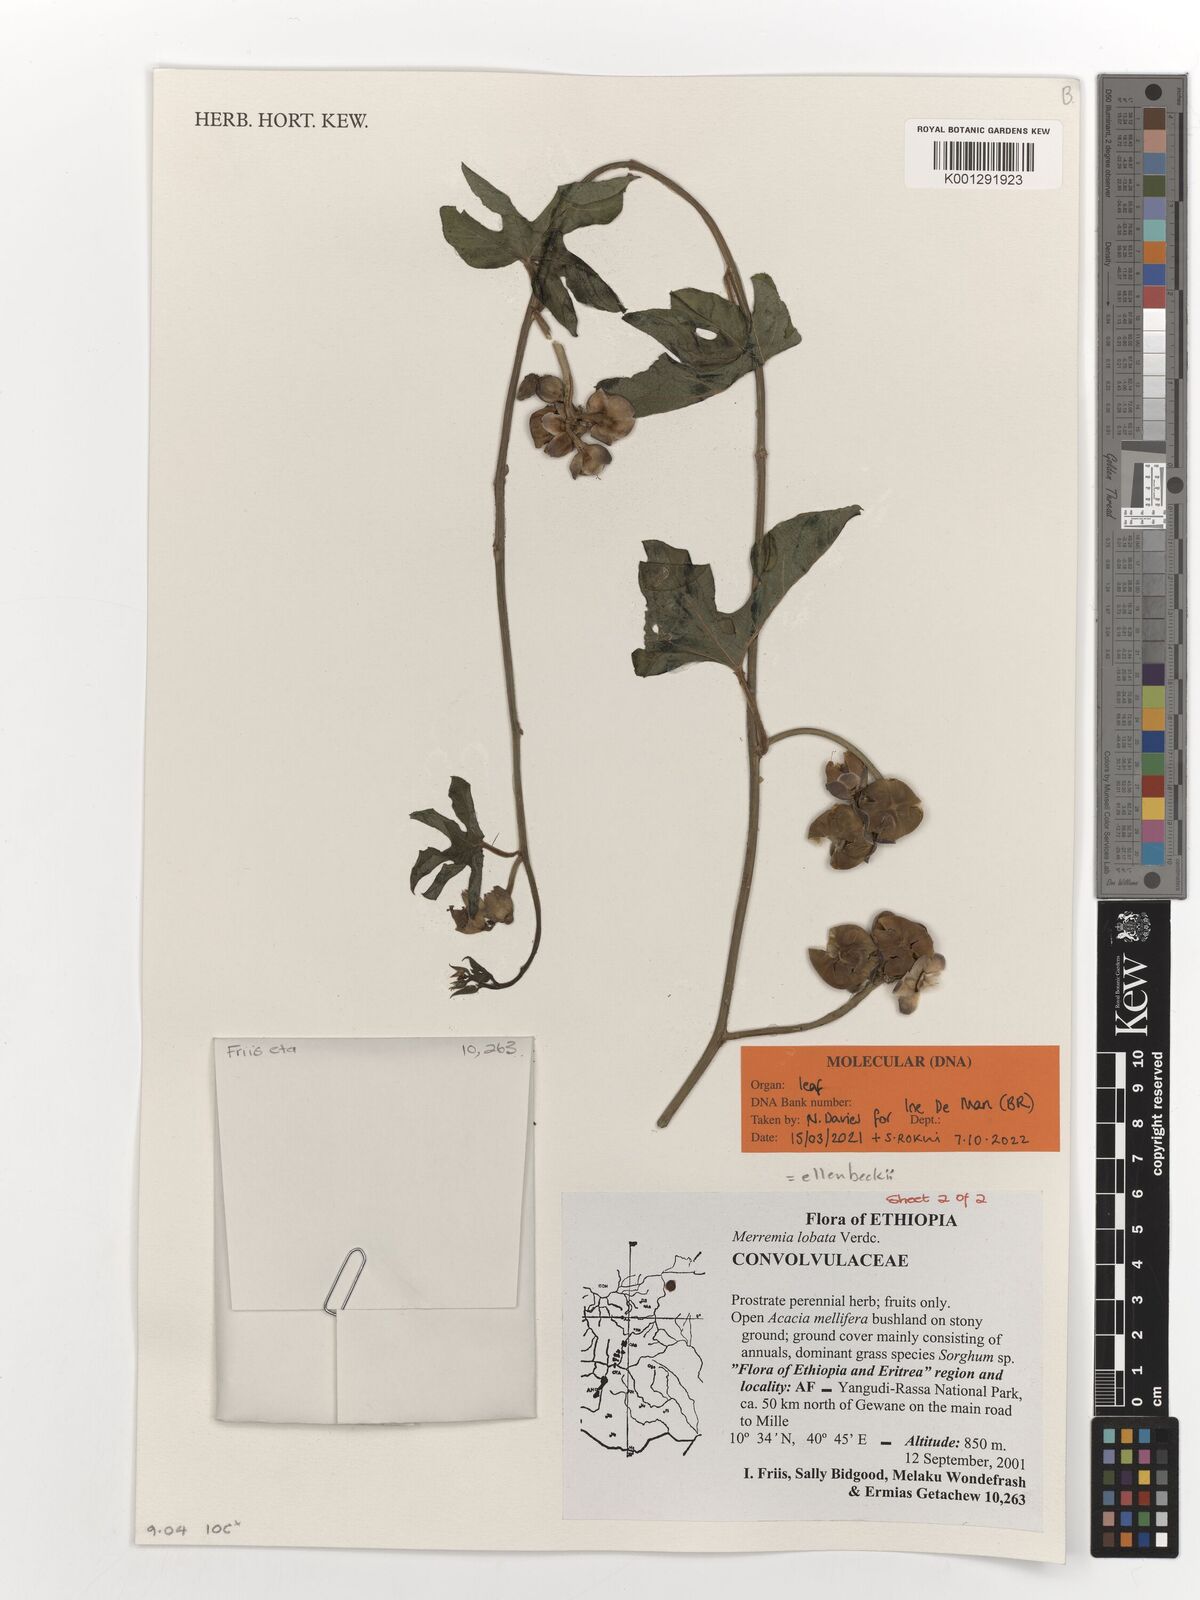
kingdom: Plantae
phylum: Tracheophyta
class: Magnoliopsida
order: Solanales
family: Convolvulaceae
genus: Merremia
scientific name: Merremia ellenbeckii
